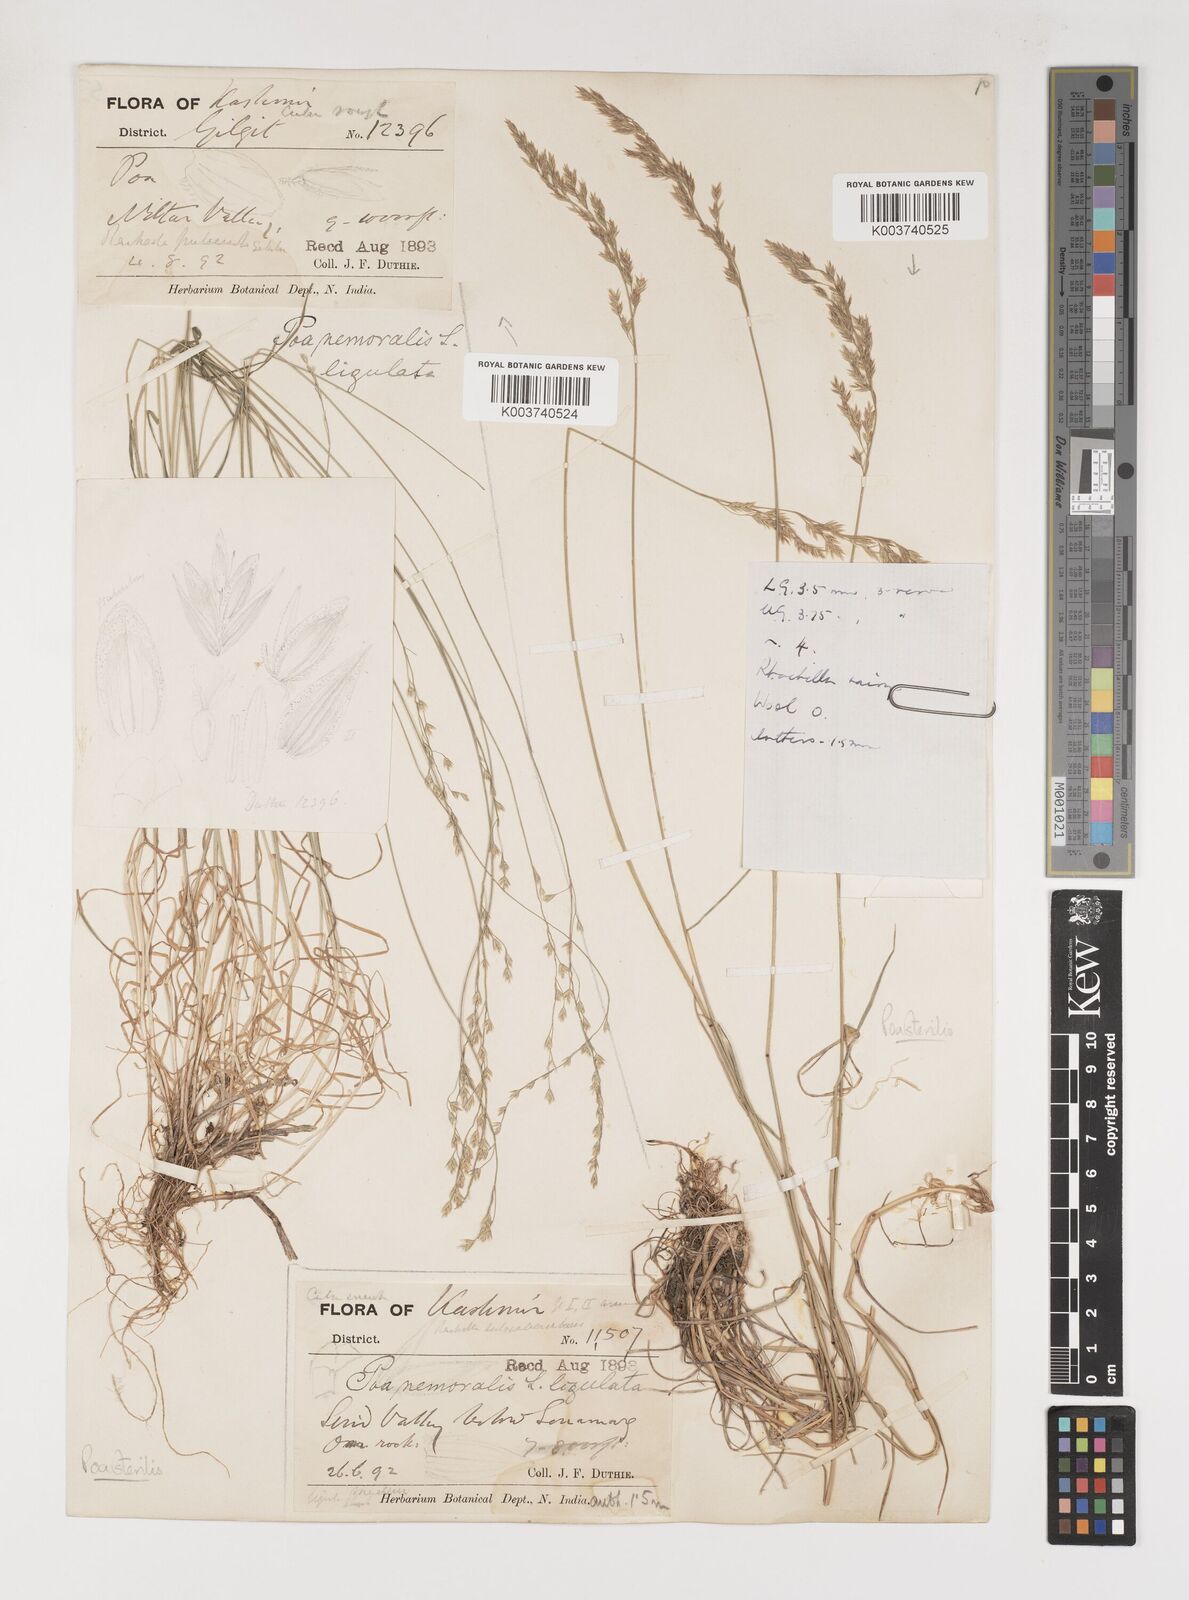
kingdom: Plantae
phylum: Tracheophyta
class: Liliopsida
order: Poales
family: Poaceae
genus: Poa
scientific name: Poa sterilis
